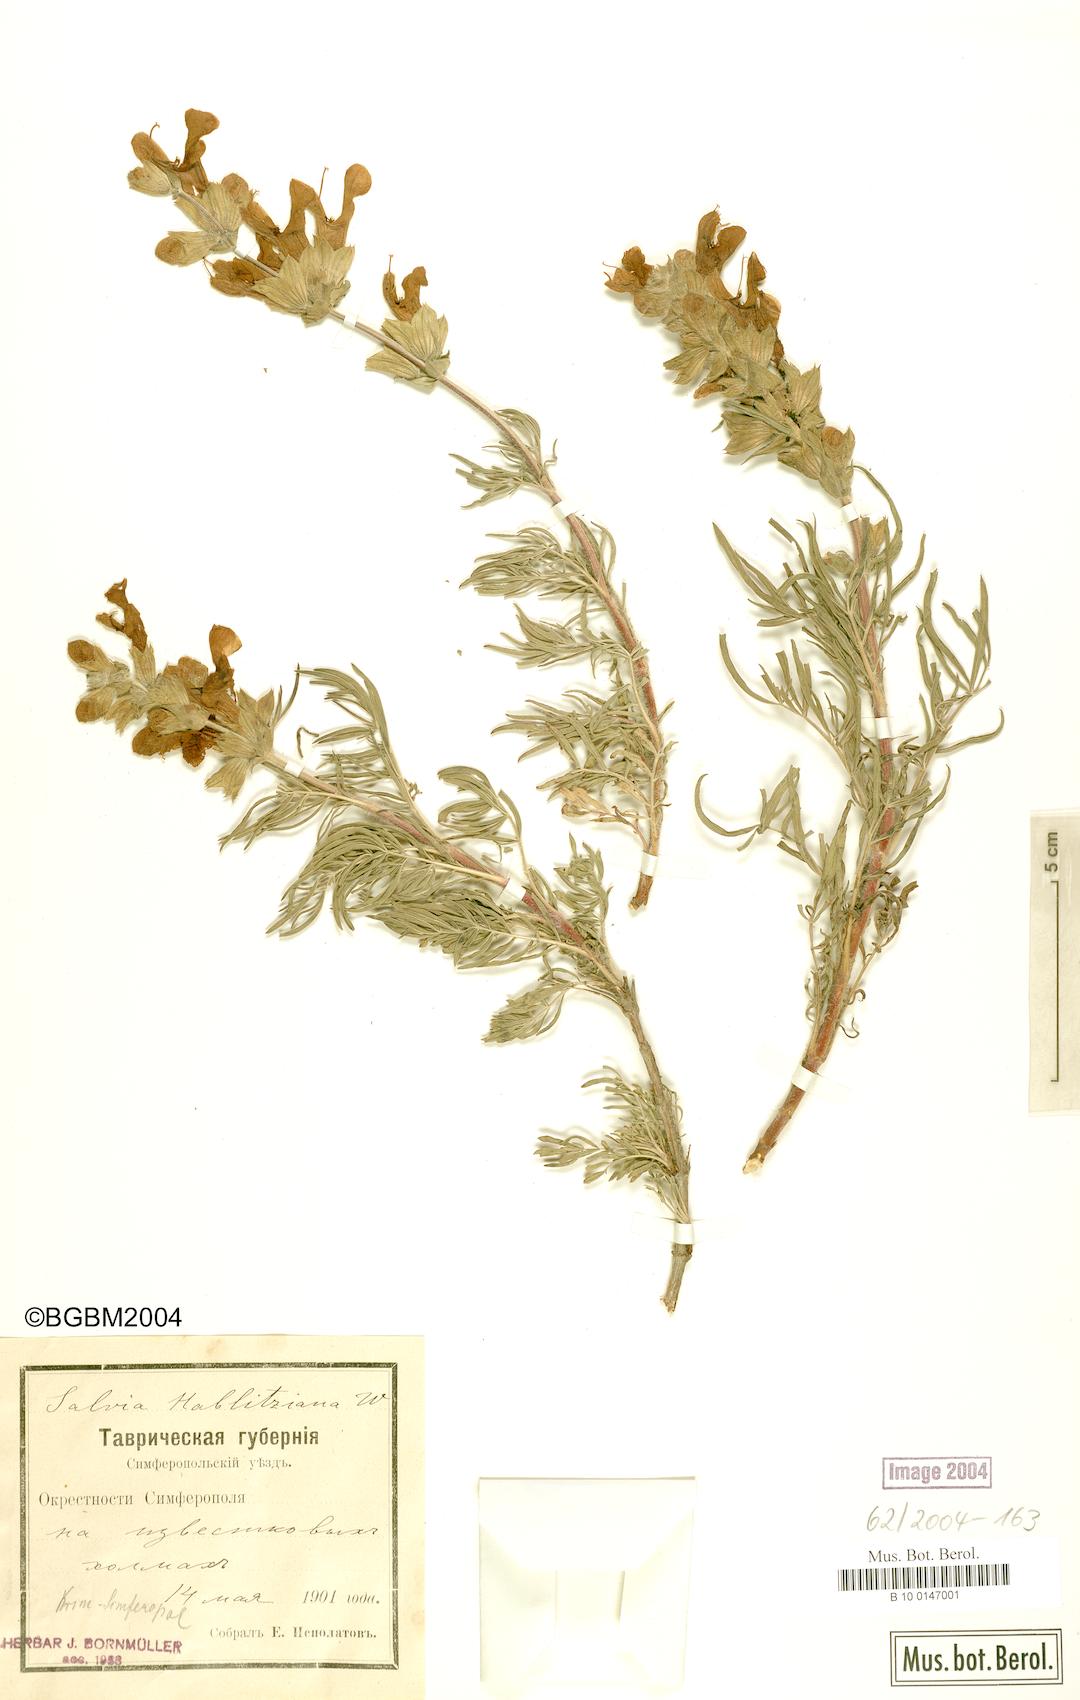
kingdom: Plantae
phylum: Tracheophyta
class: Magnoliopsida
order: Lamiales
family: Lamiaceae
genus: Salvia
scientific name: Salvia scabiosifolia
